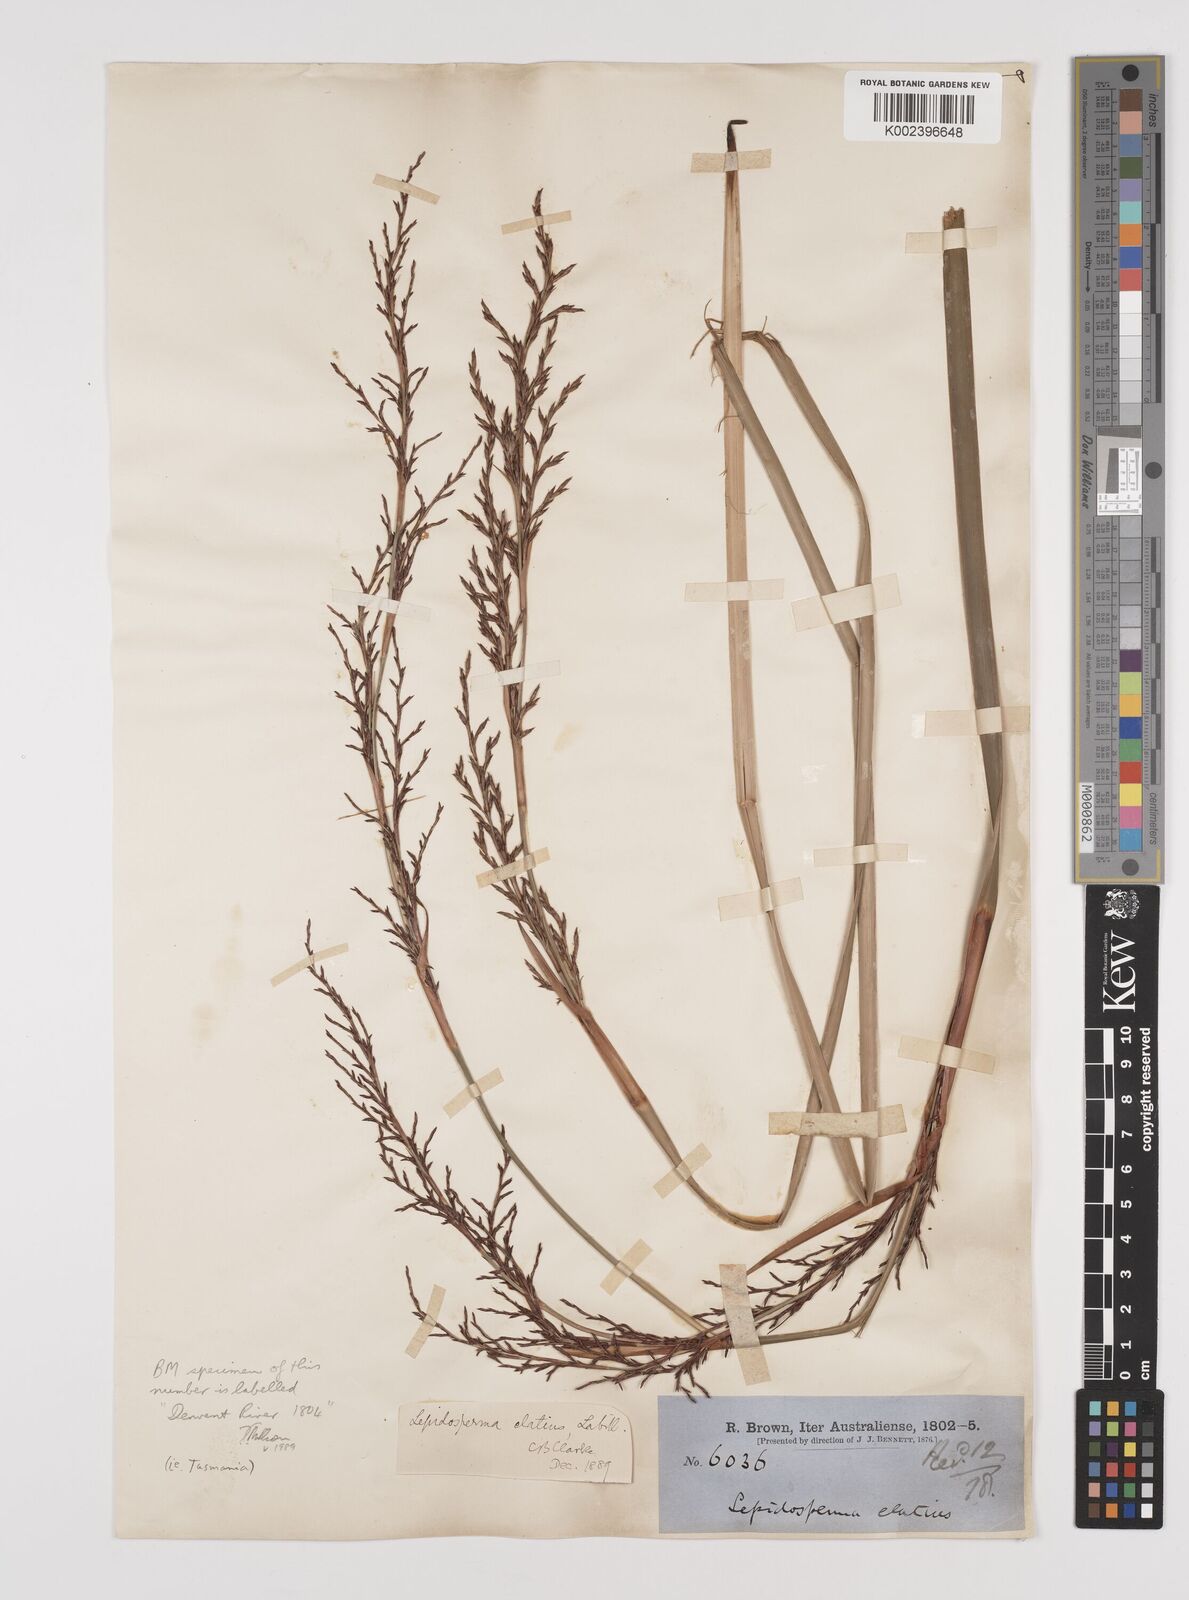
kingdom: Plantae
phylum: Tracheophyta
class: Liliopsida
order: Poales
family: Cyperaceae
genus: Lepidosperma
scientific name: Lepidosperma elatius
